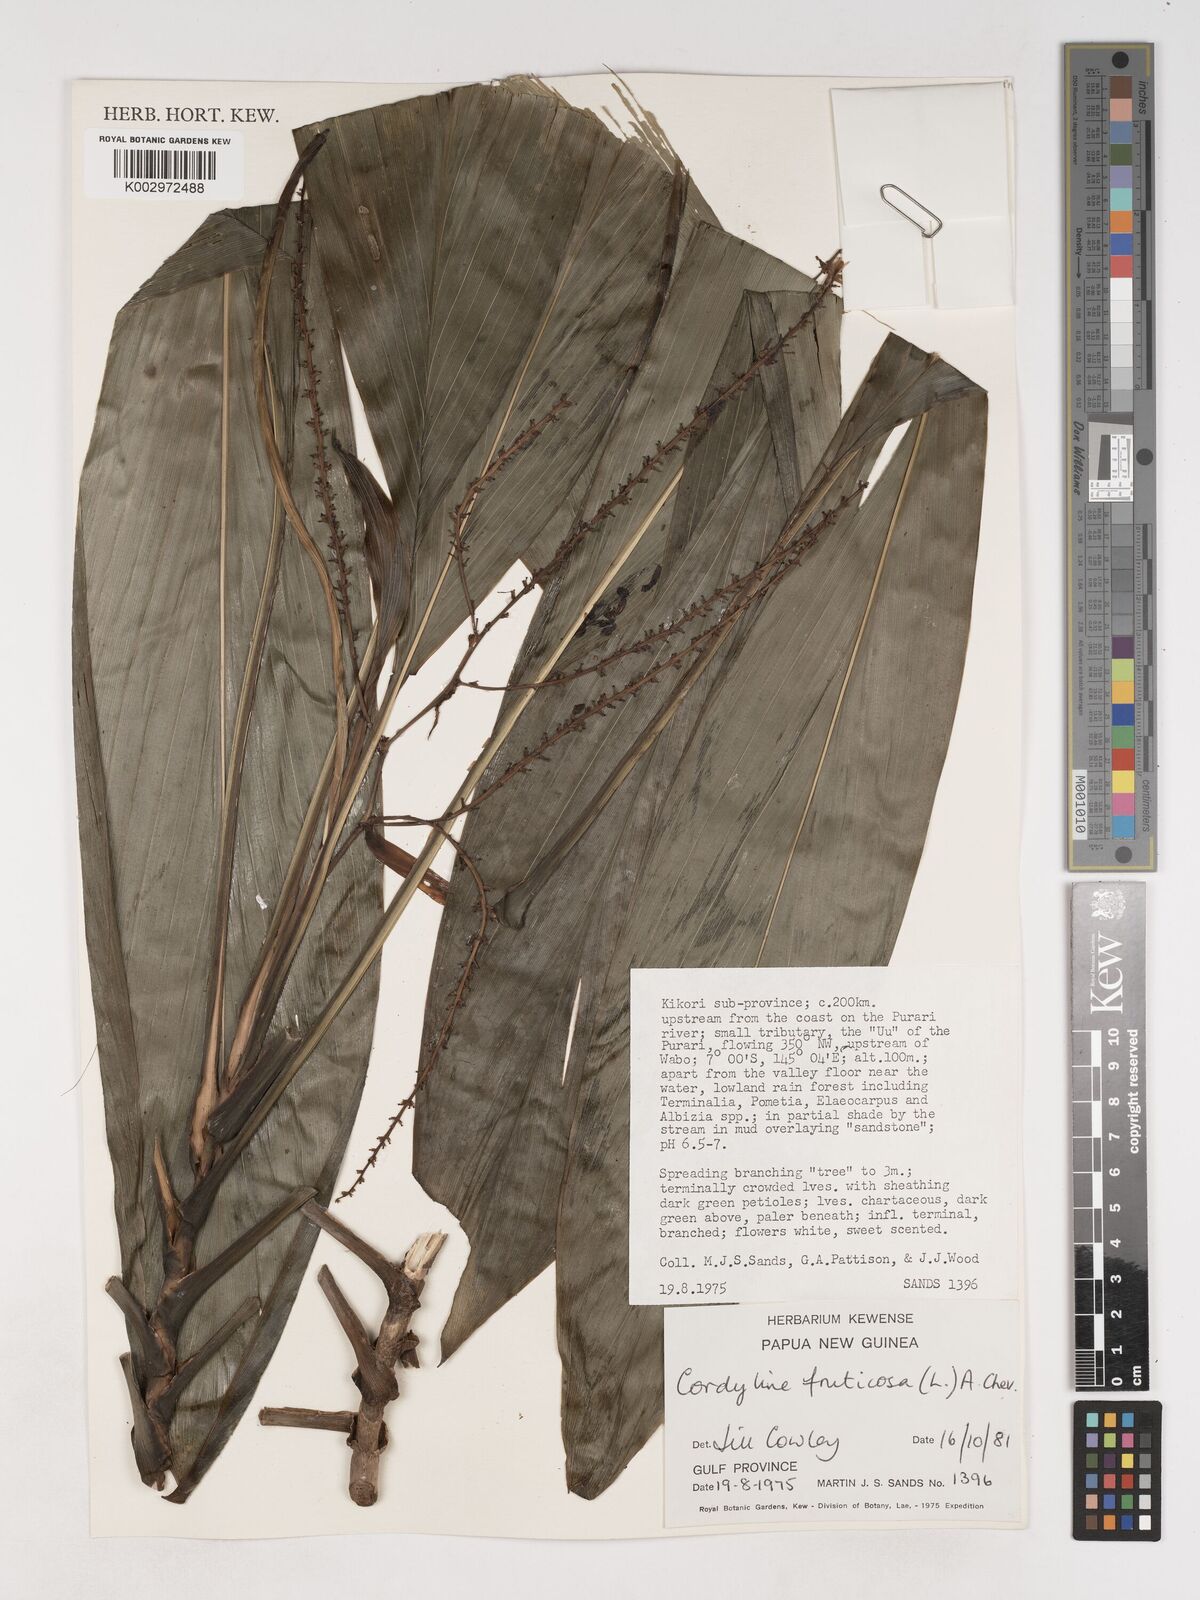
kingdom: Plantae
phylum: Tracheophyta
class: Liliopsida
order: Asparagales
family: Asparagaceae
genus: Cordyline
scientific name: Cordyline fruticosa
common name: Good-luck-plant
